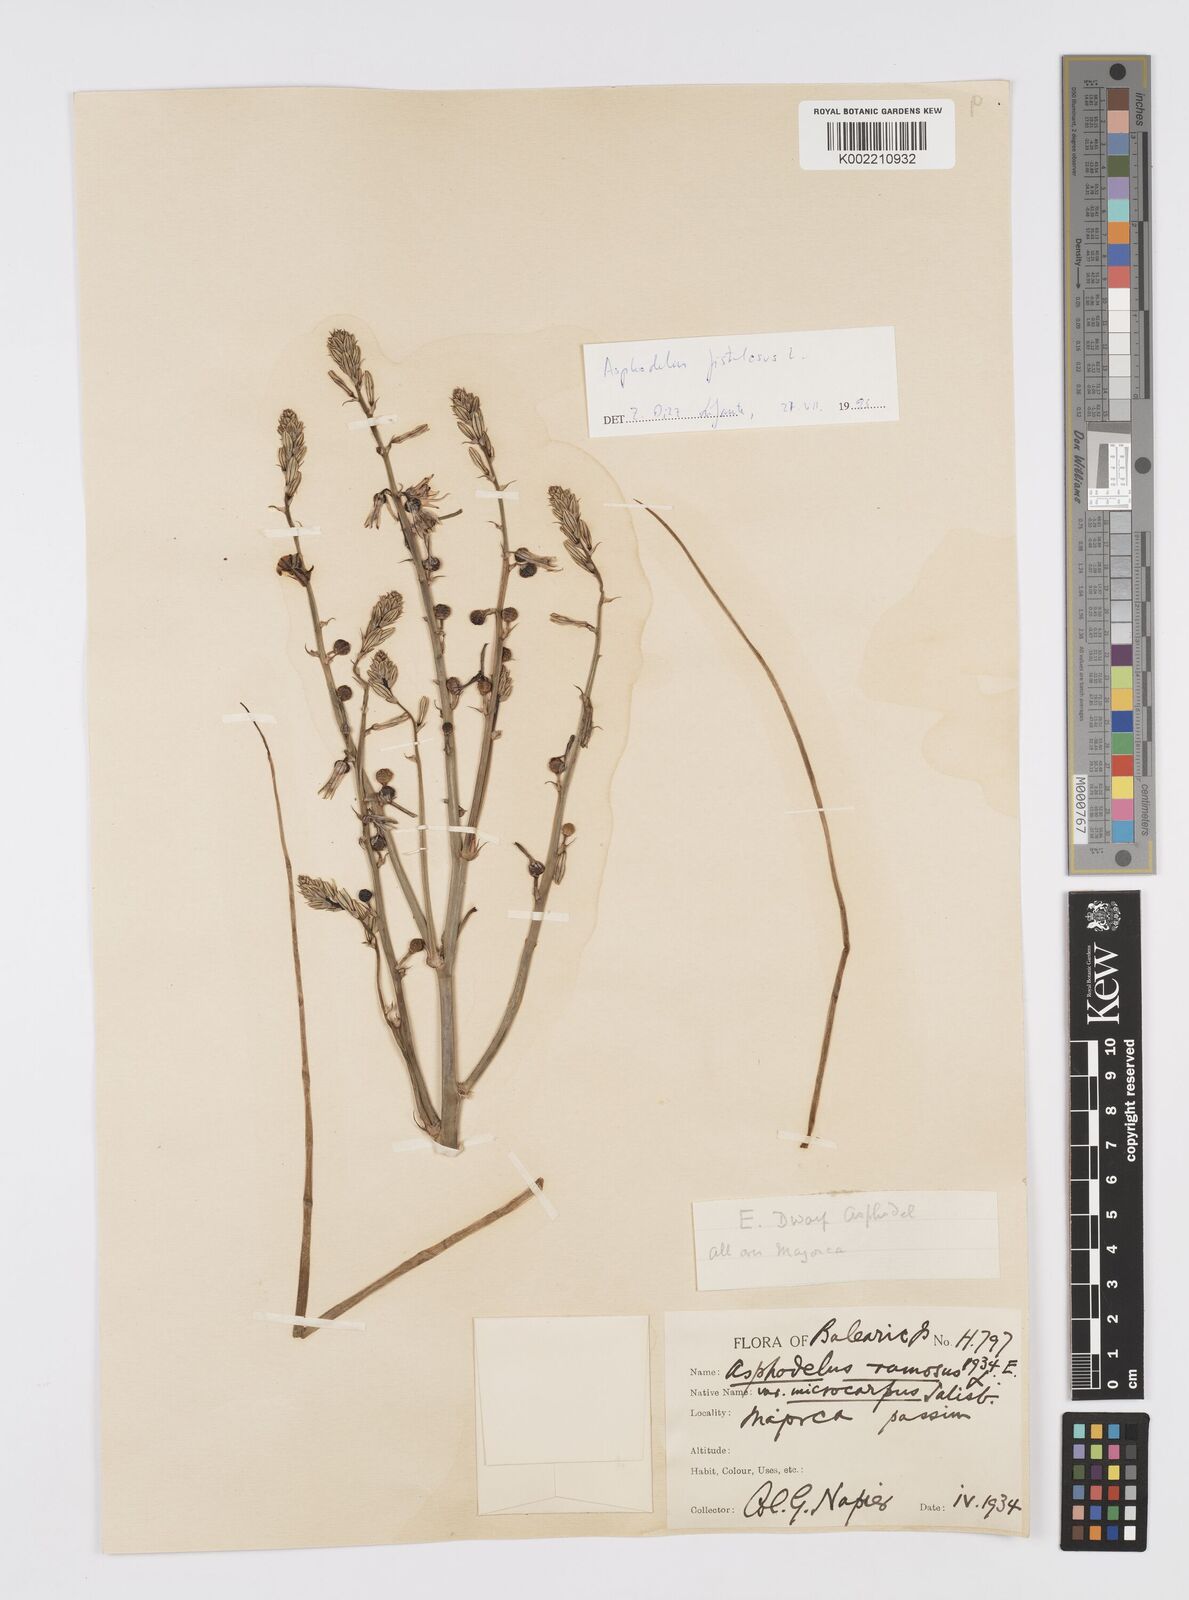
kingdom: Plantae
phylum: Tracheophyta
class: Liliopsida
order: Asparagales
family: Asphodelaceae
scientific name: Asphodelaceae
